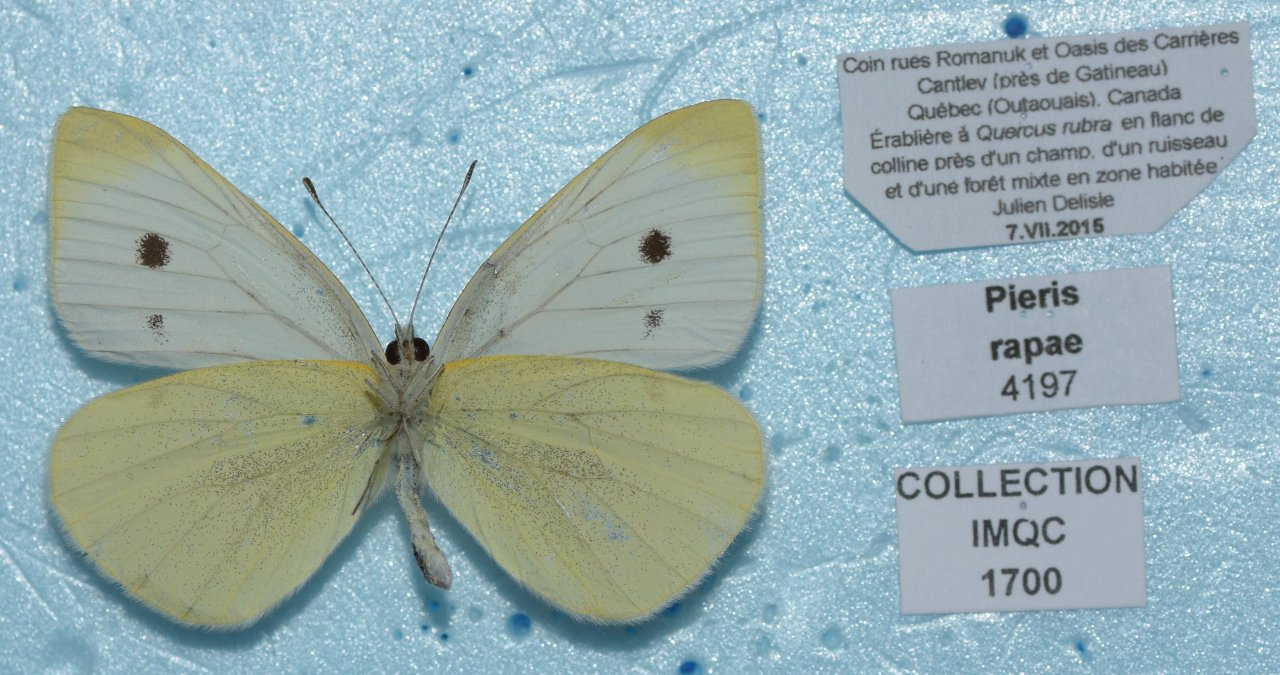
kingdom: Animalia
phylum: Arthropoda
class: Insecta
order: Lepidoptera
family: Pieridae
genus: Pieris
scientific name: Pieris rapae
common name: Cabbage White
